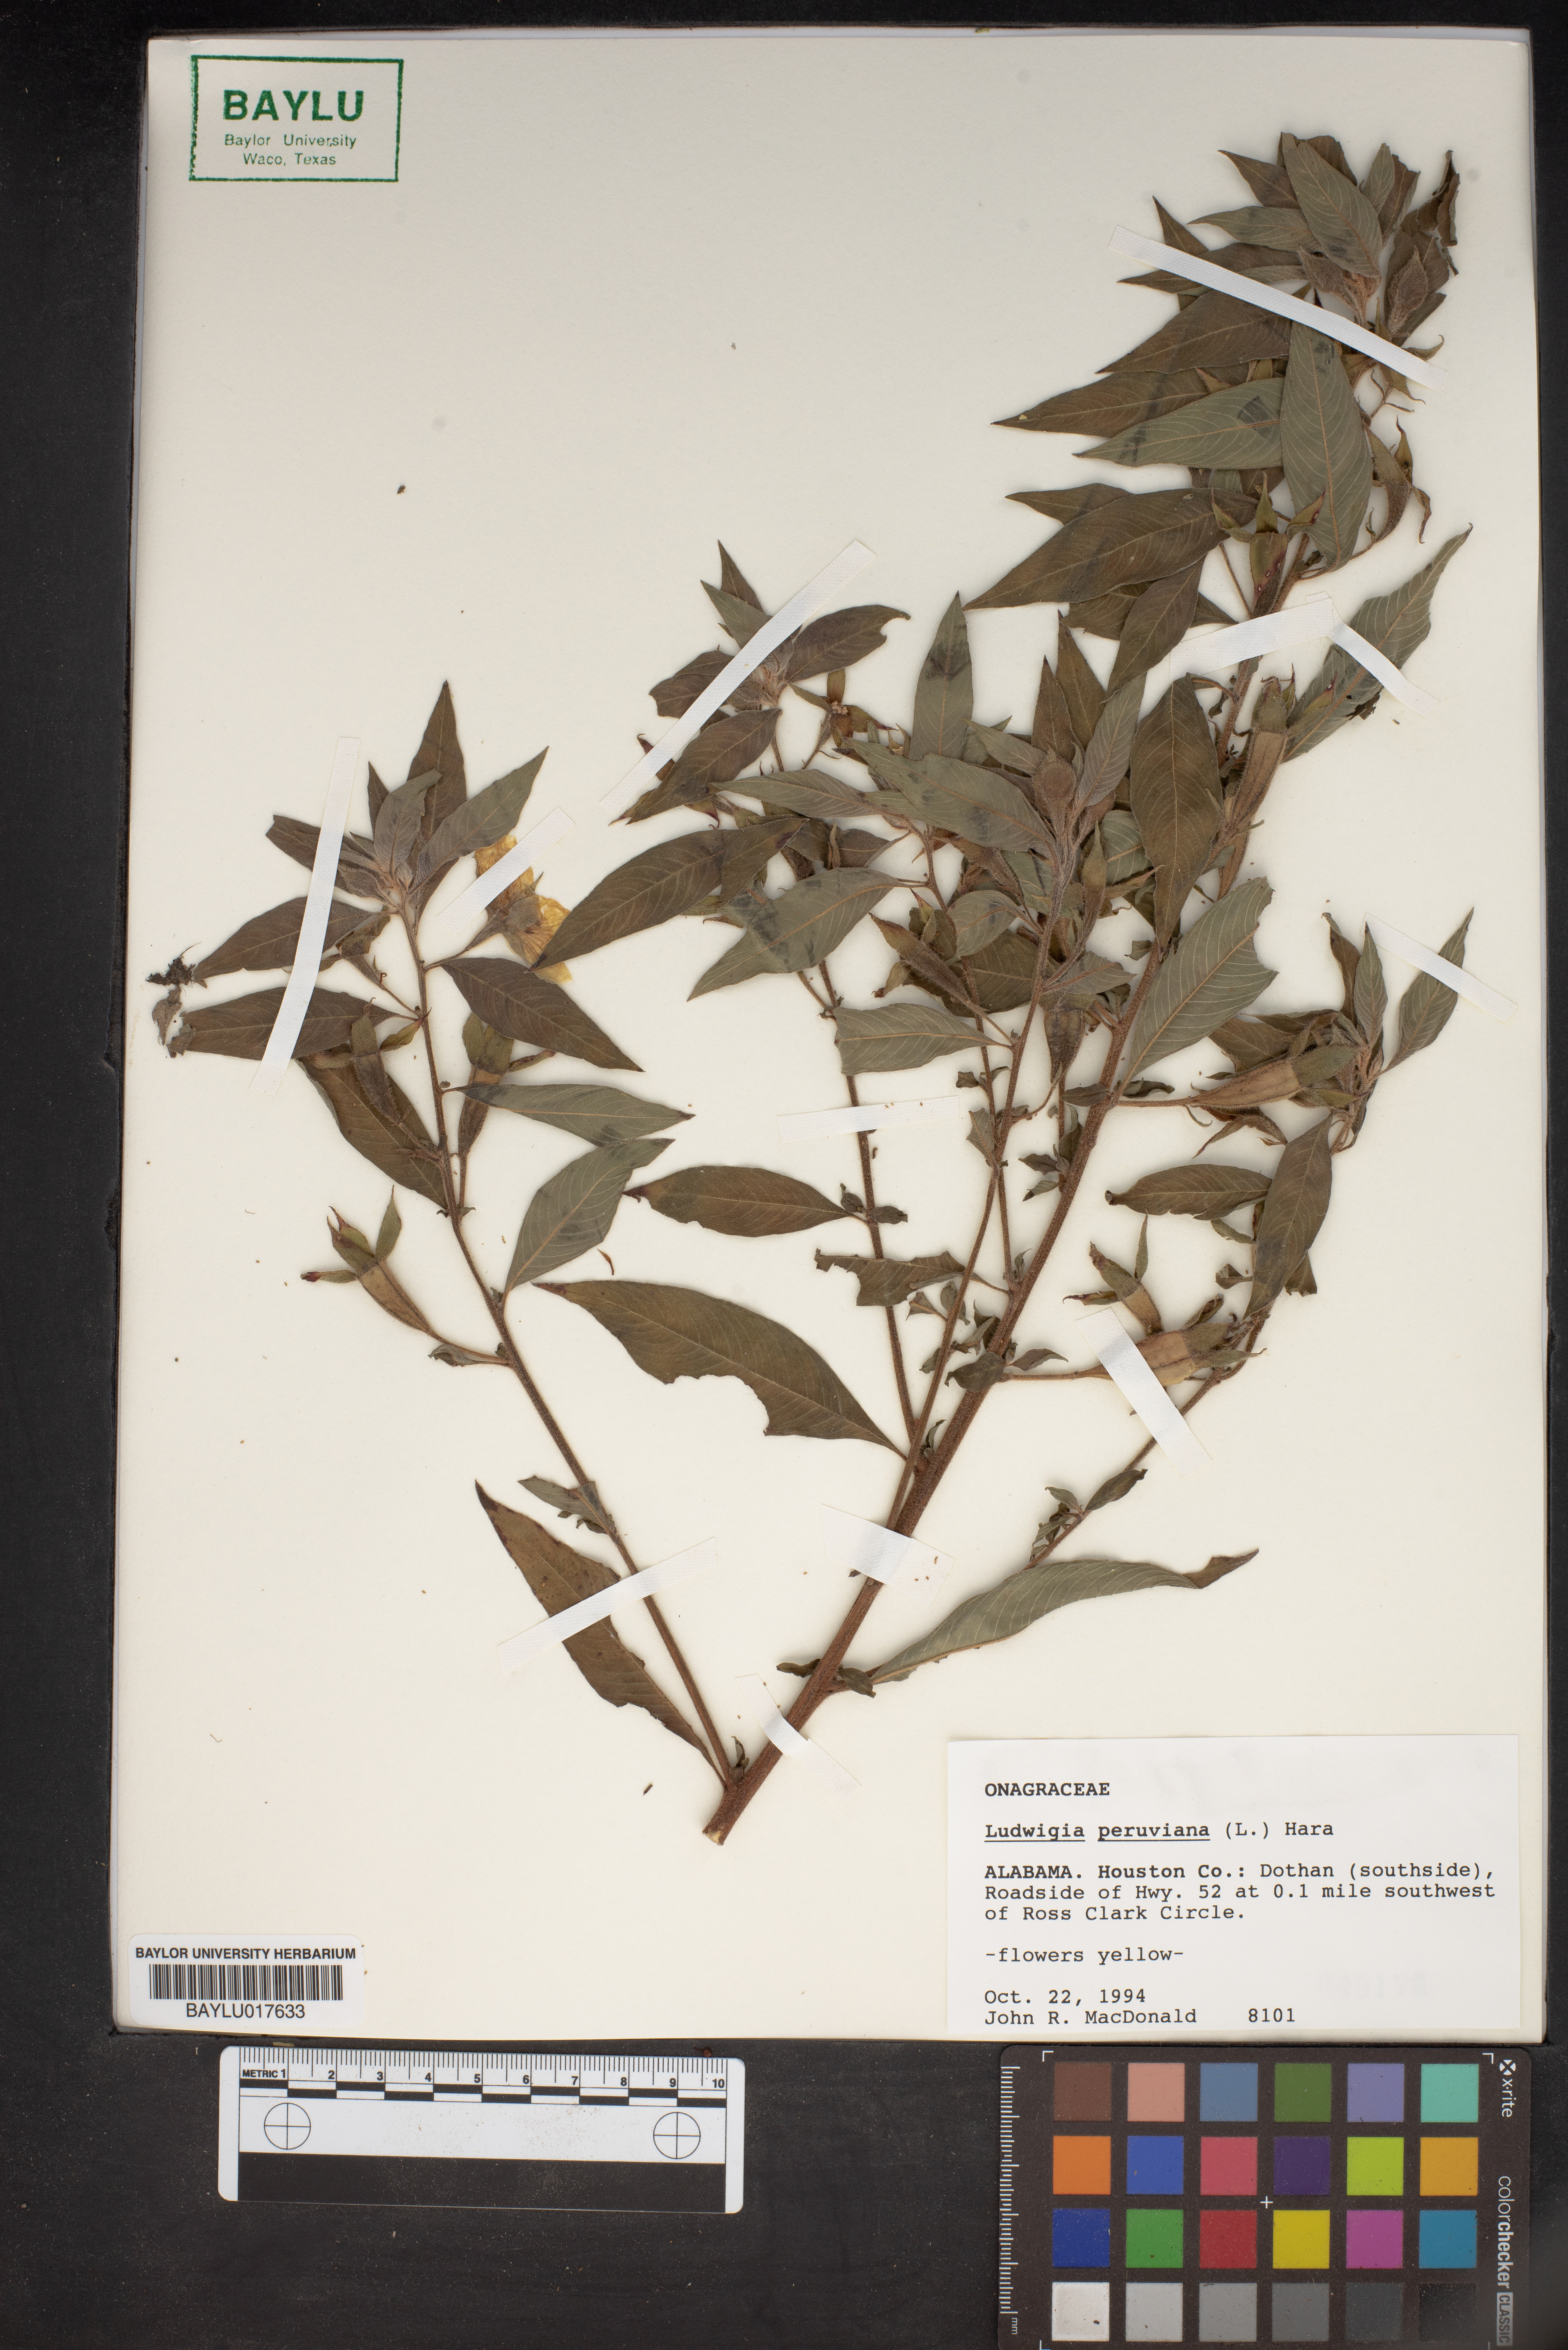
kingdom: Plantae
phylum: Tracheophyta
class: Magnoliopsida
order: Myrtales
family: Onagraceae
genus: Ludwigia
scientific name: Ludwigia peruviana
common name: Peruvian primrose-willow
